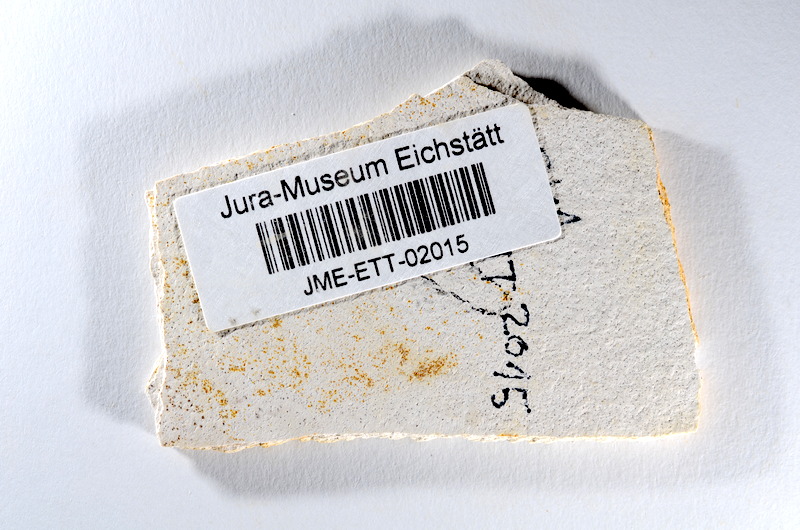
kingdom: Animalia
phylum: Chordata
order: Salmoniformes
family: Orthogonikleithridae
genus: Orthogonikleithrus
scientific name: Orthogonikleithrus hoelli
